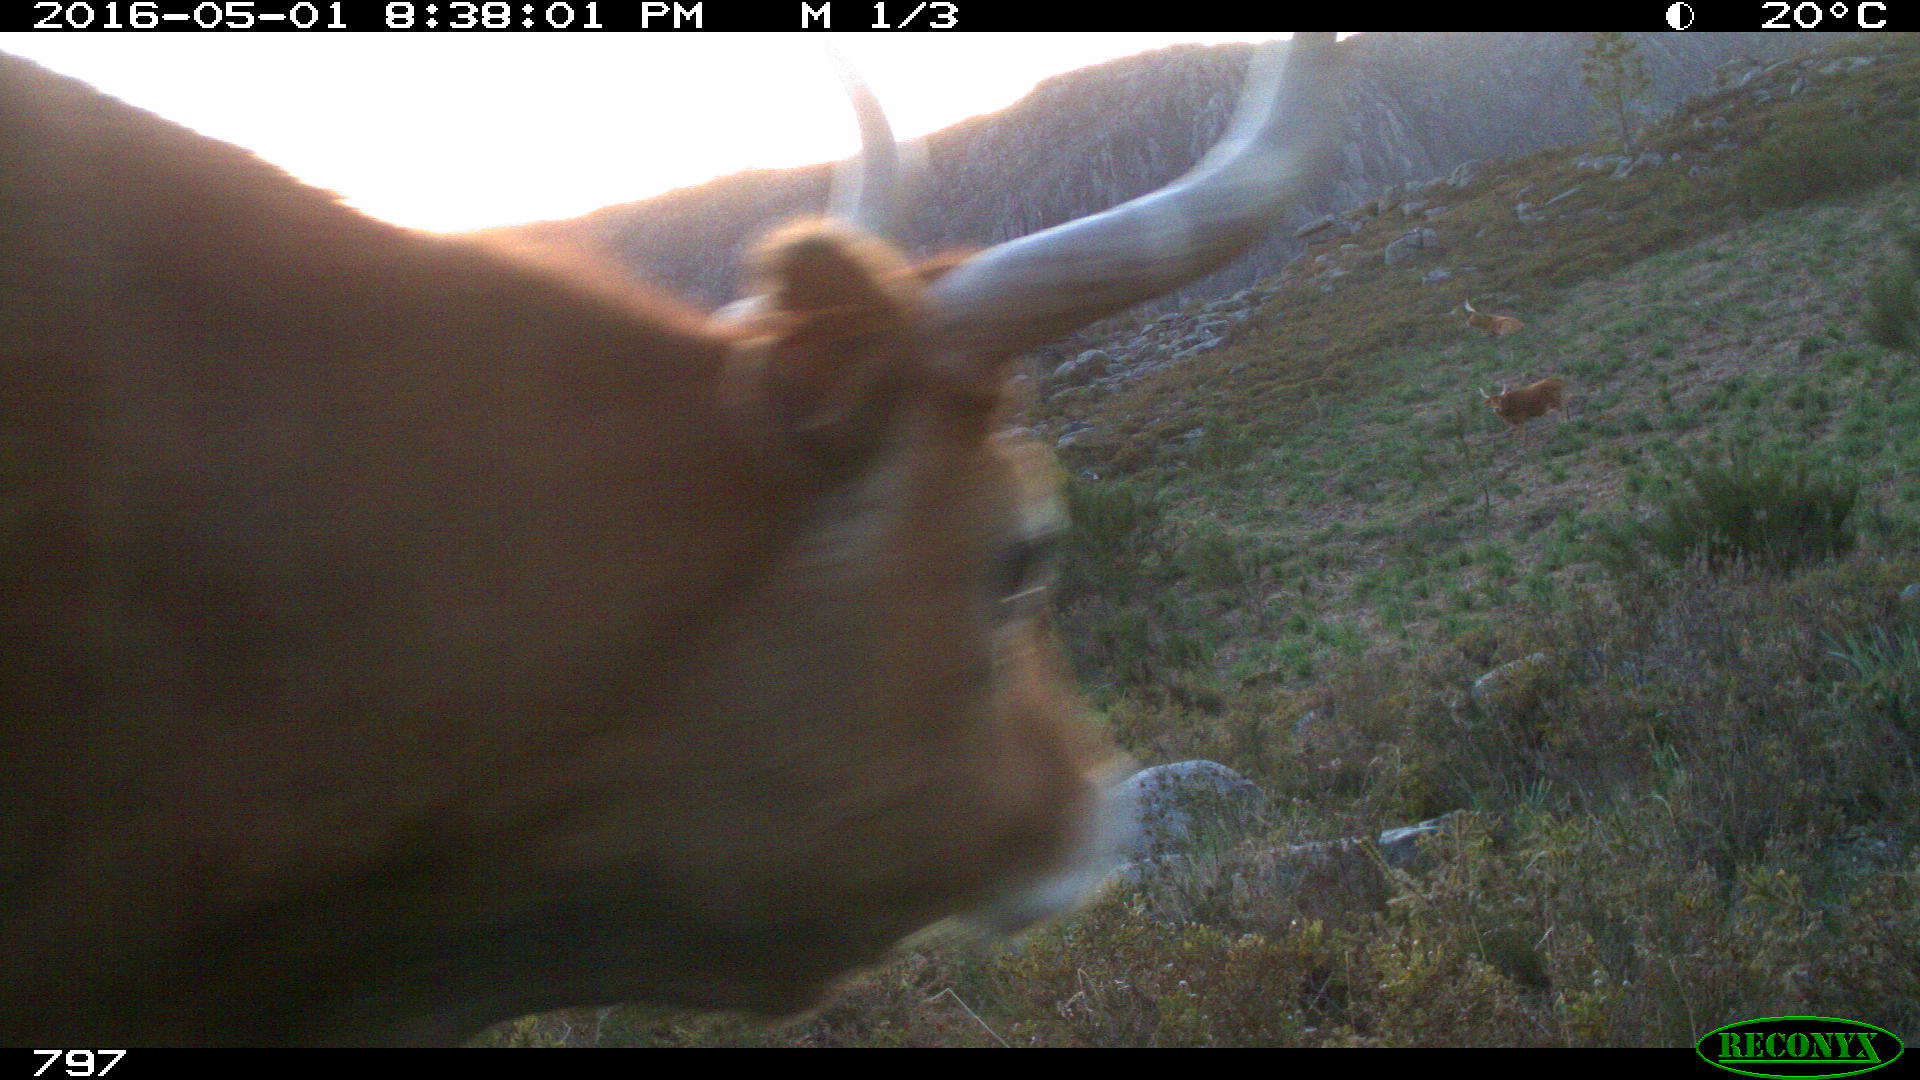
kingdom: Animalia
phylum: Chordata
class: Mammalia
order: Artiodactyla
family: Bovidae
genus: Bos
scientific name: Bos taurus
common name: Domesticated cattle
